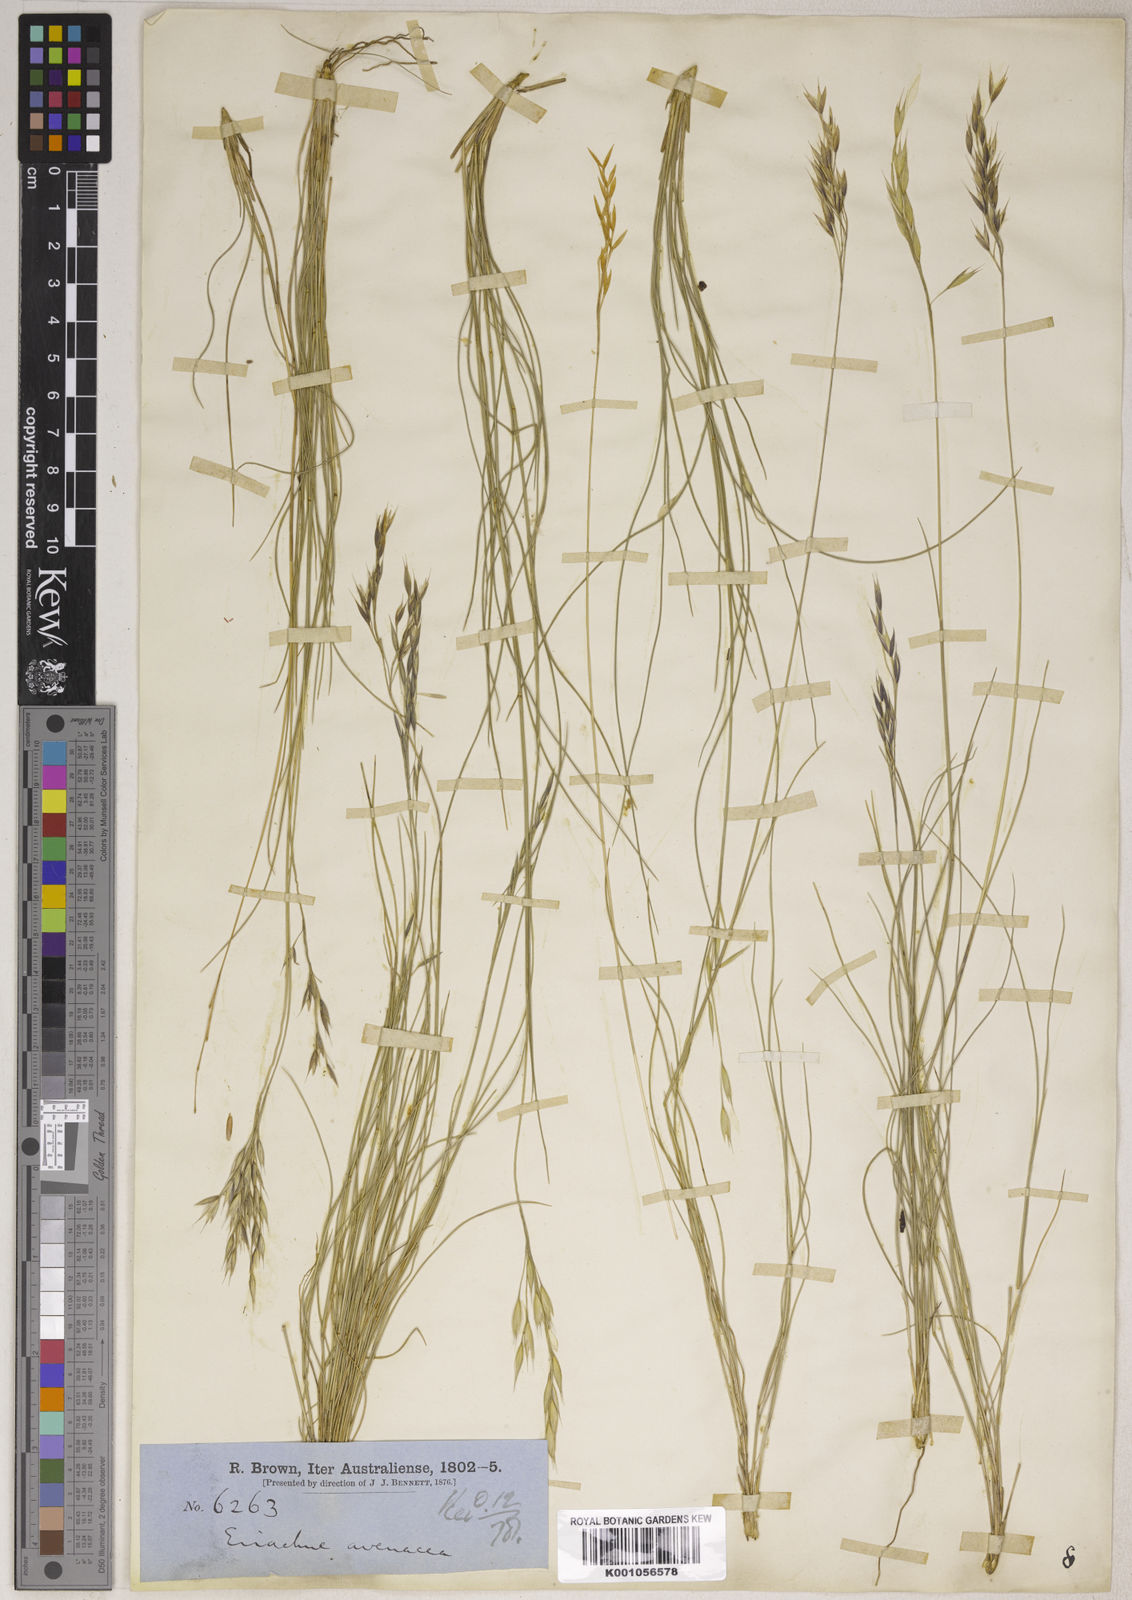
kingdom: Plantae
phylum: Tracheophyta
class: Liliopsida
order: Poales
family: Poaceae
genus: Eriachne
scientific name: Eriachne avenacea
